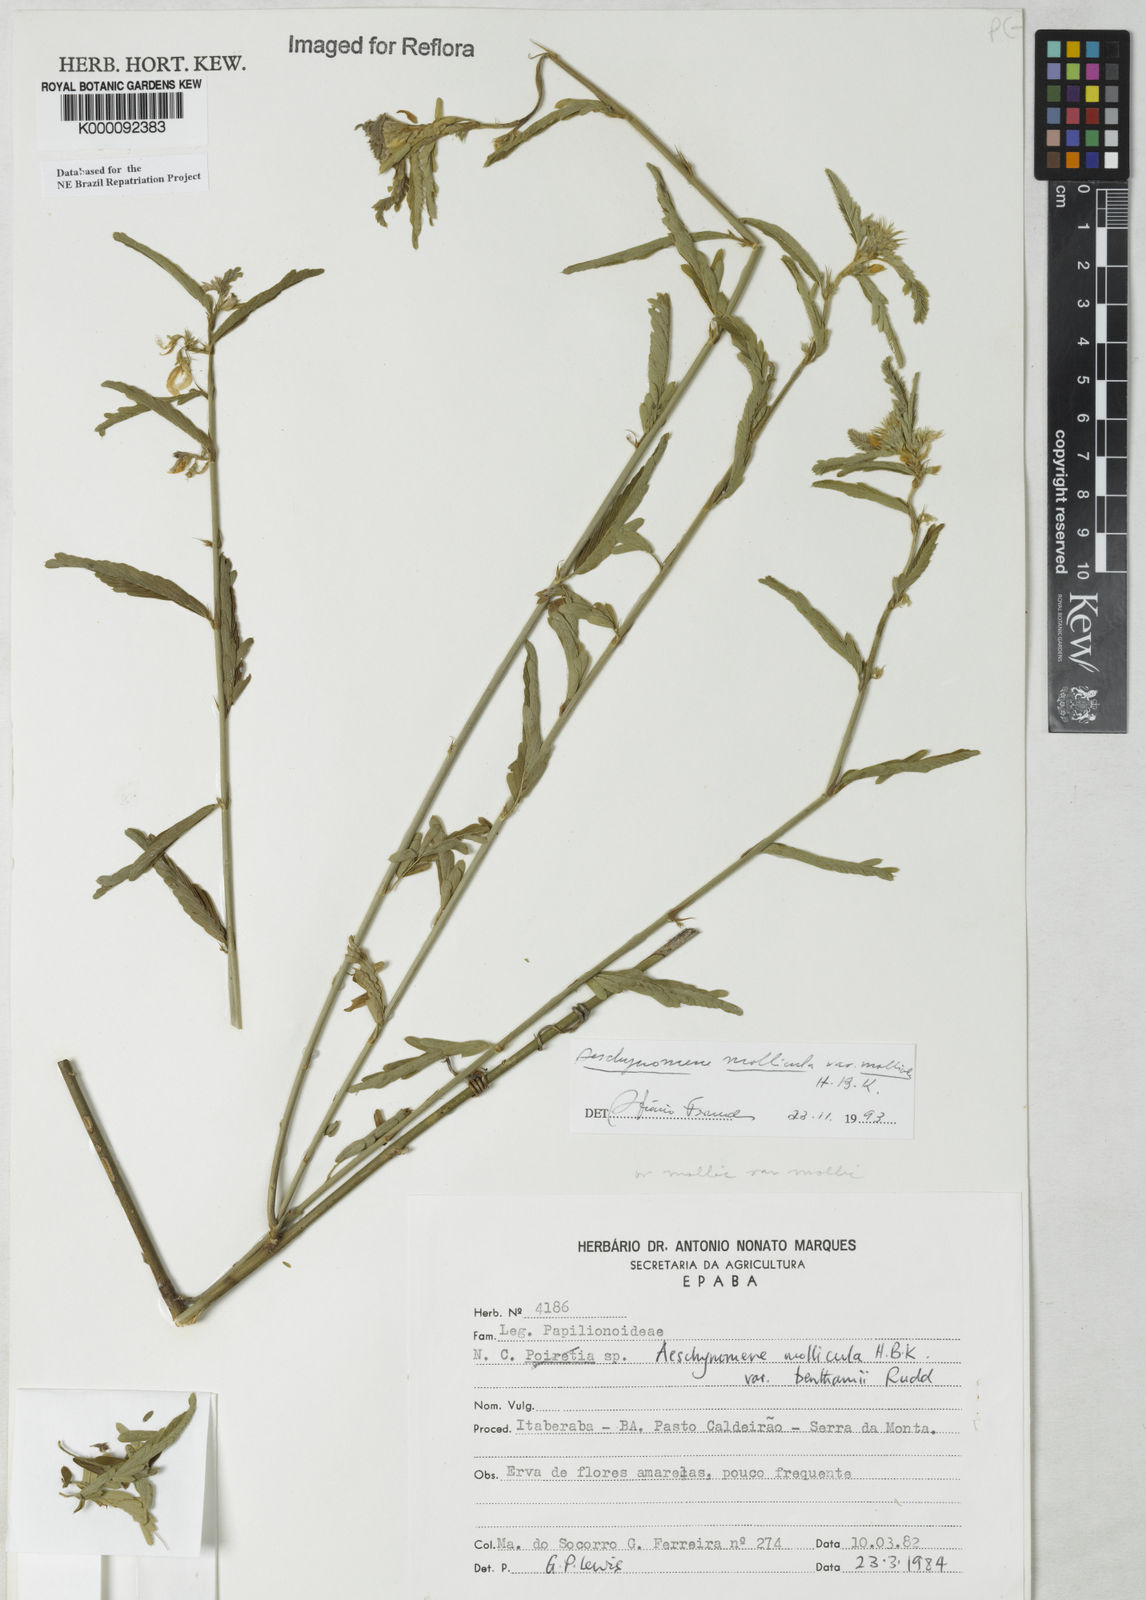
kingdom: Plantae
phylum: Tracheophyta
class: Magnoliopsida
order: Fabales
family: Fabaceae
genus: Ctenodon
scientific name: Ctenodon molliculus
